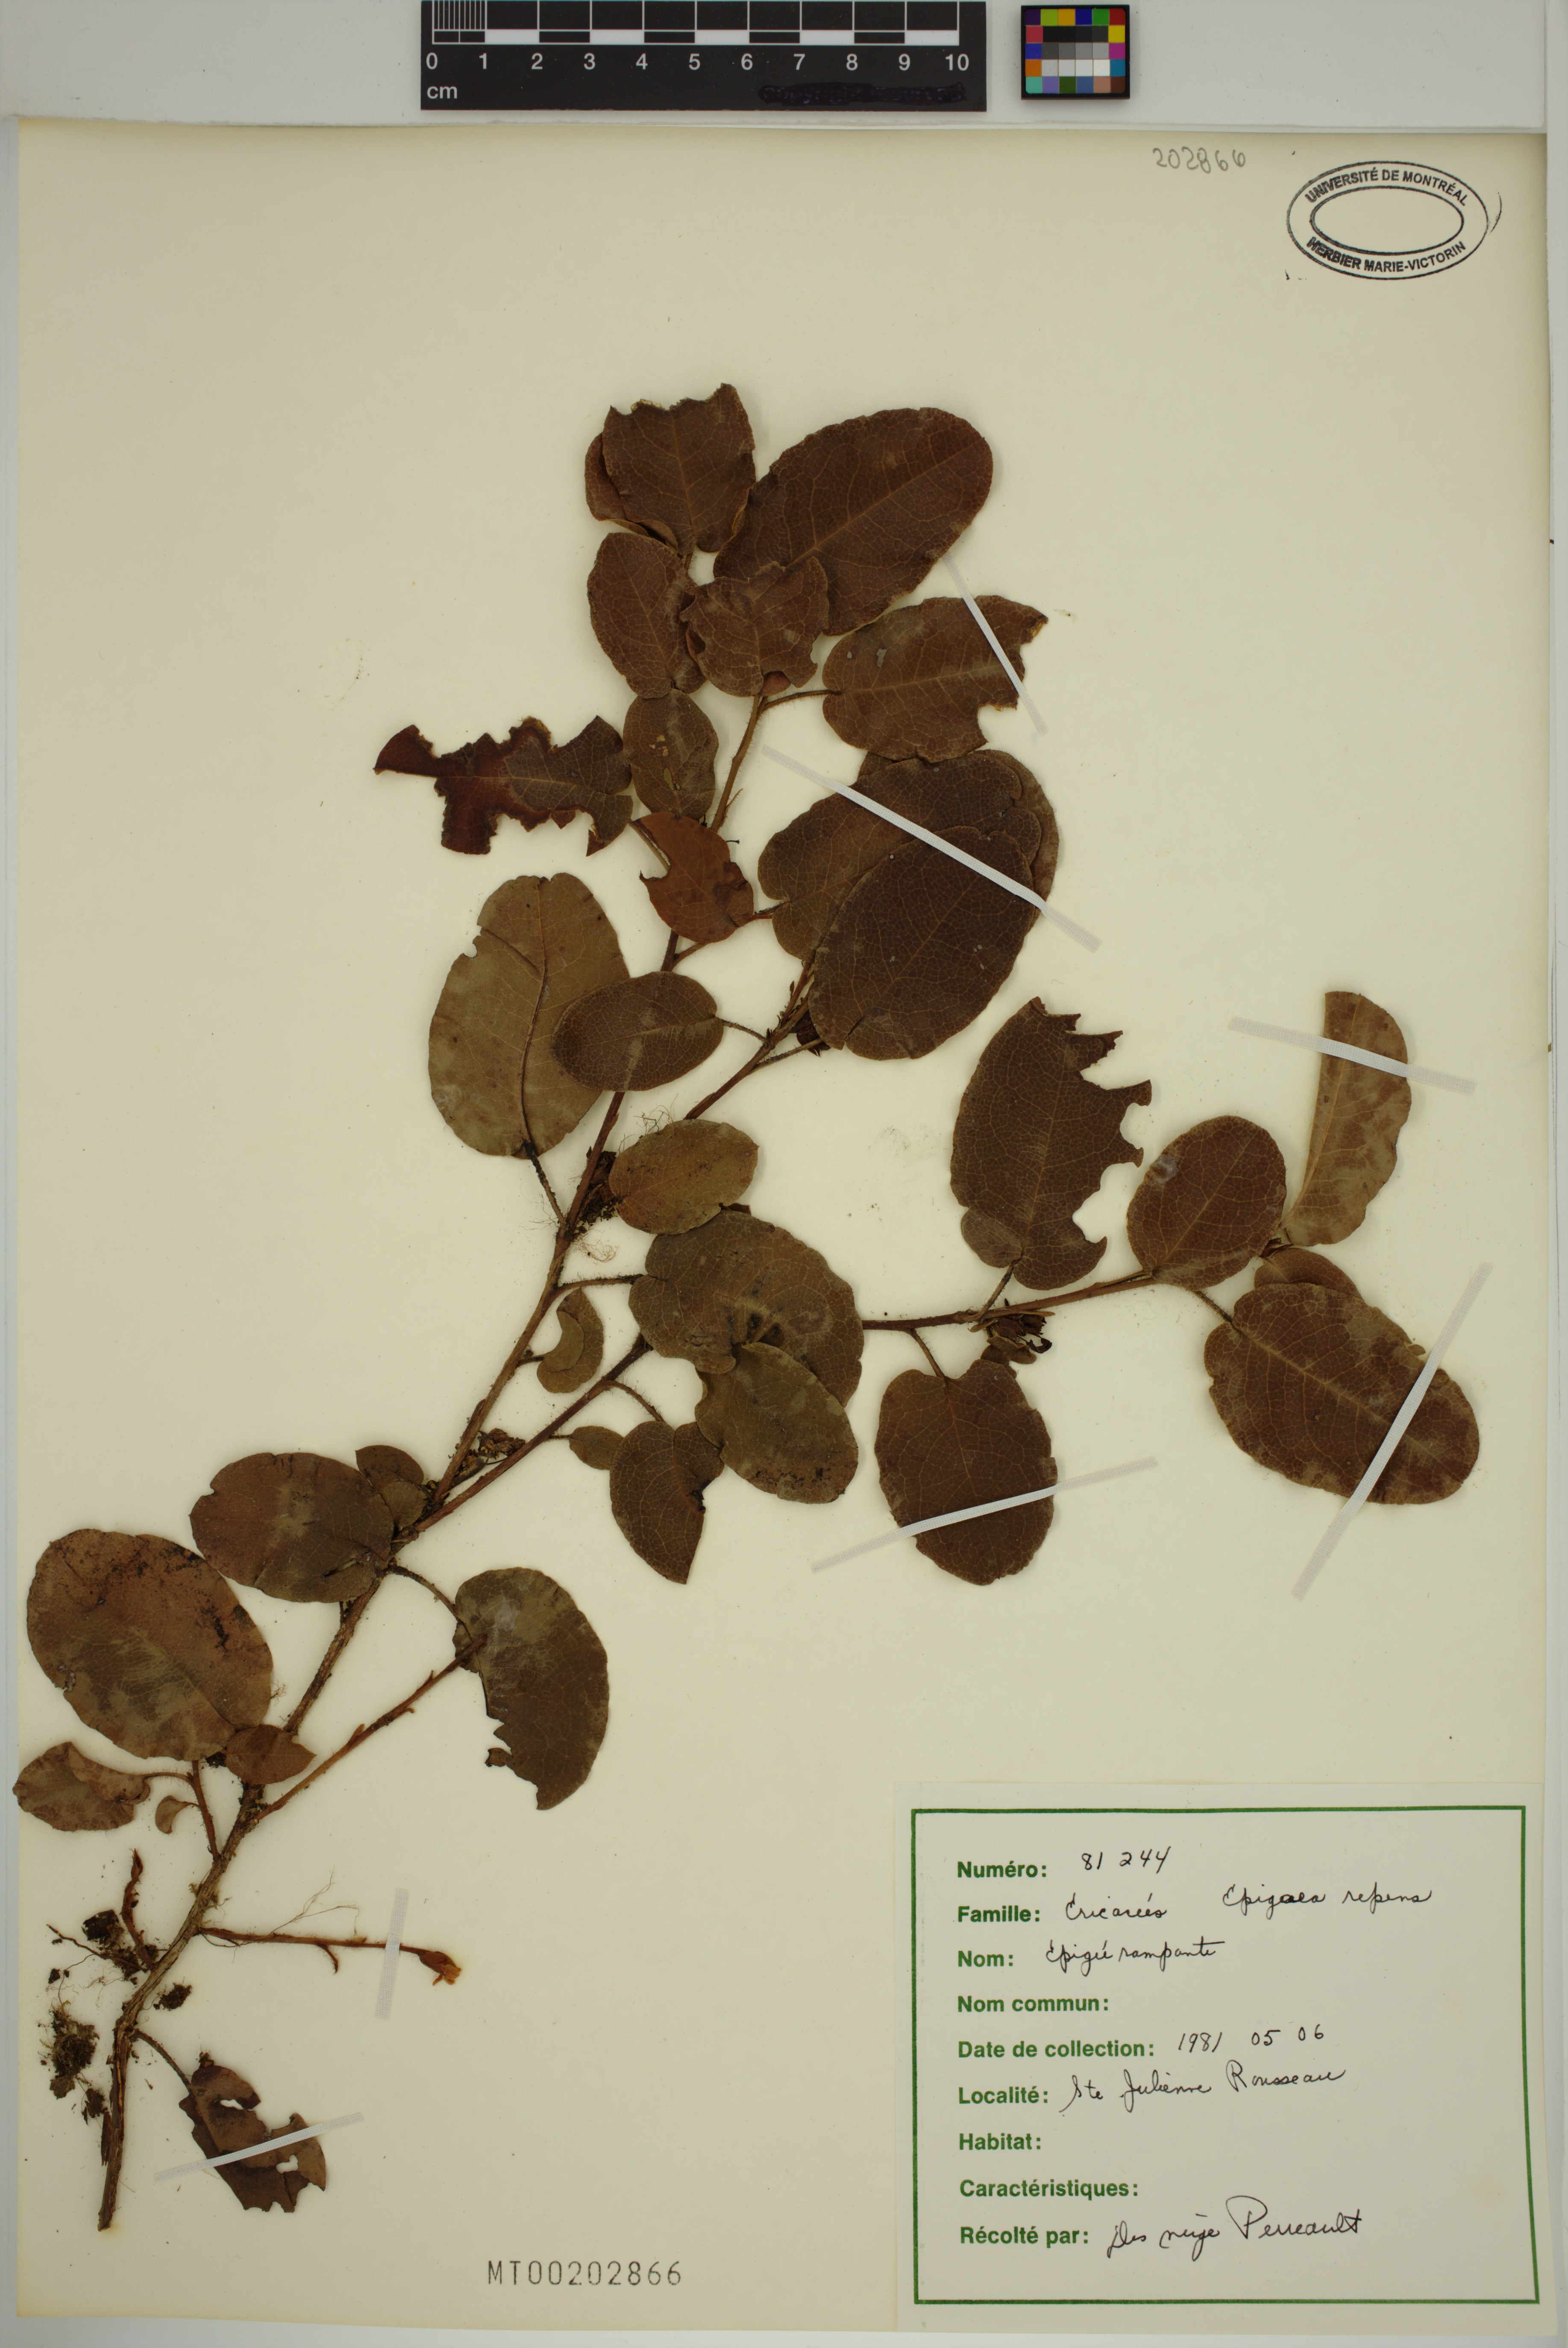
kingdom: Plantae
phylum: Tracheophyta
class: Magnoliopsida
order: Ericales
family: Ericaceae
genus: Epigaea
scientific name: Epigaea repens
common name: Gravelroot
